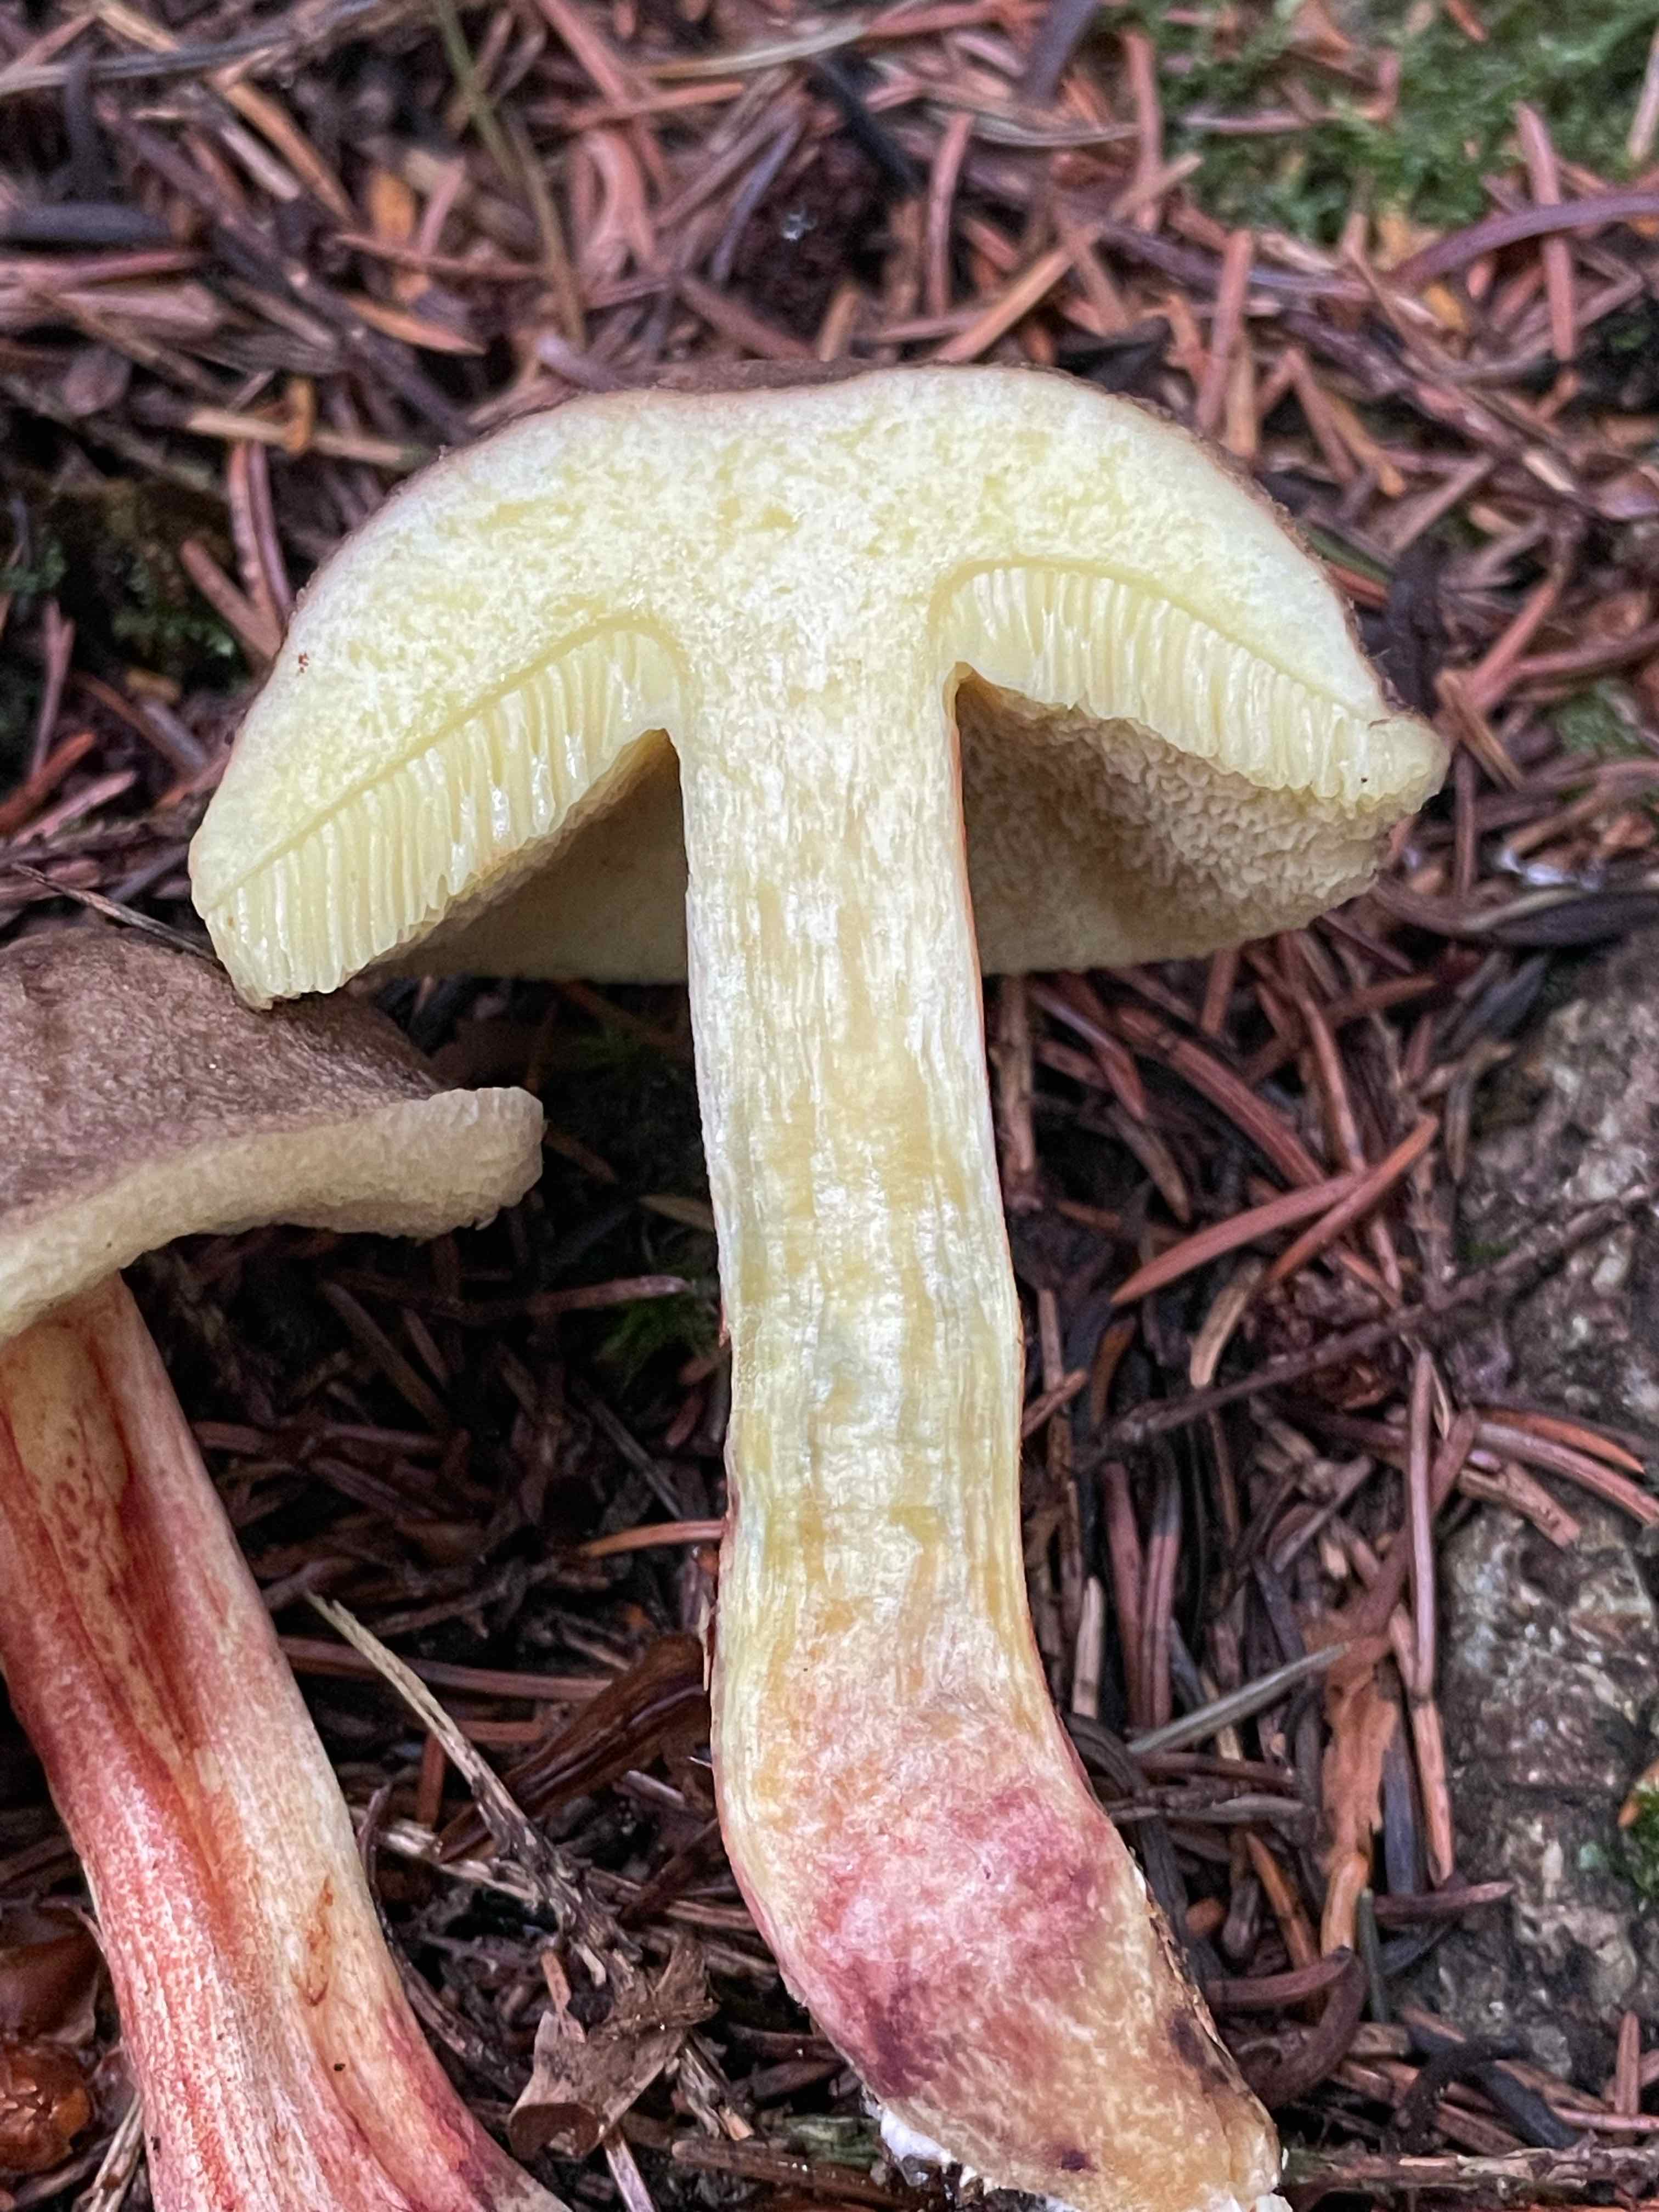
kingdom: Fungi
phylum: Basidiomycota
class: Agaricomycetes
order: Boletales
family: Boletaceae
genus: Xerocomellus
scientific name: Xerocomellus chrysenteron
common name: rødsprukken rørhat
